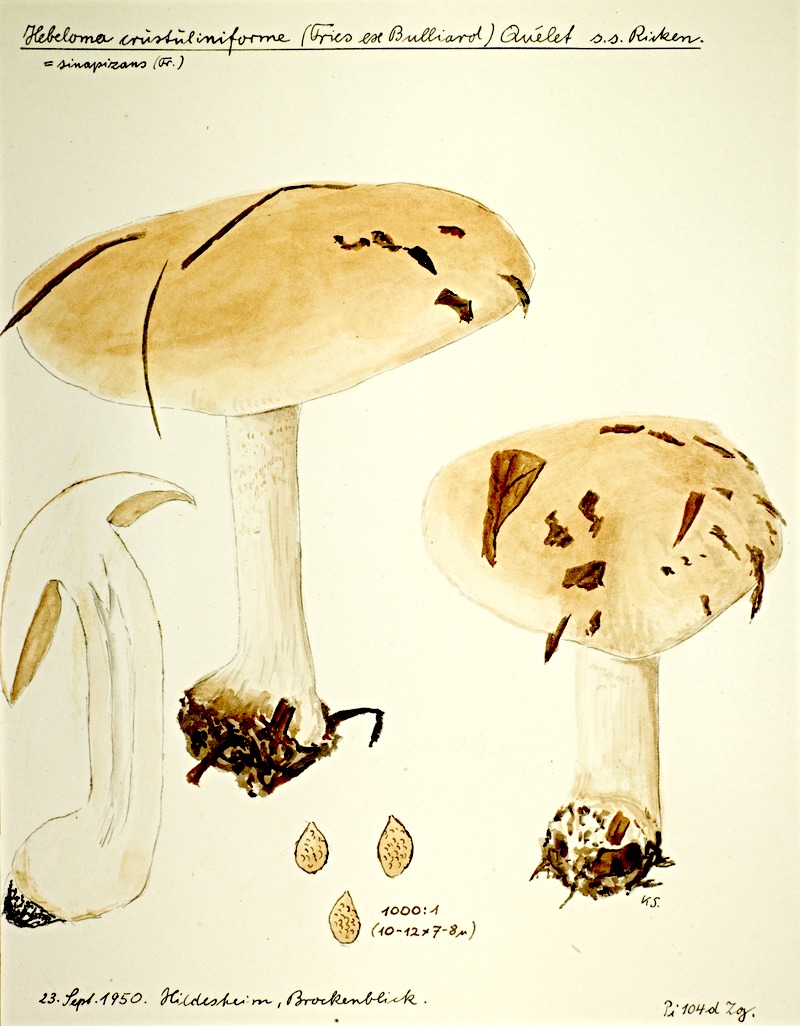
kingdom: Fungi
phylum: Basidiomycota
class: Agaricomycetes
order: Agaricales
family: Hymenogastraceae
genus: Hebeloma
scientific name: Hebeloma crustuliniforme
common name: Poison pie
